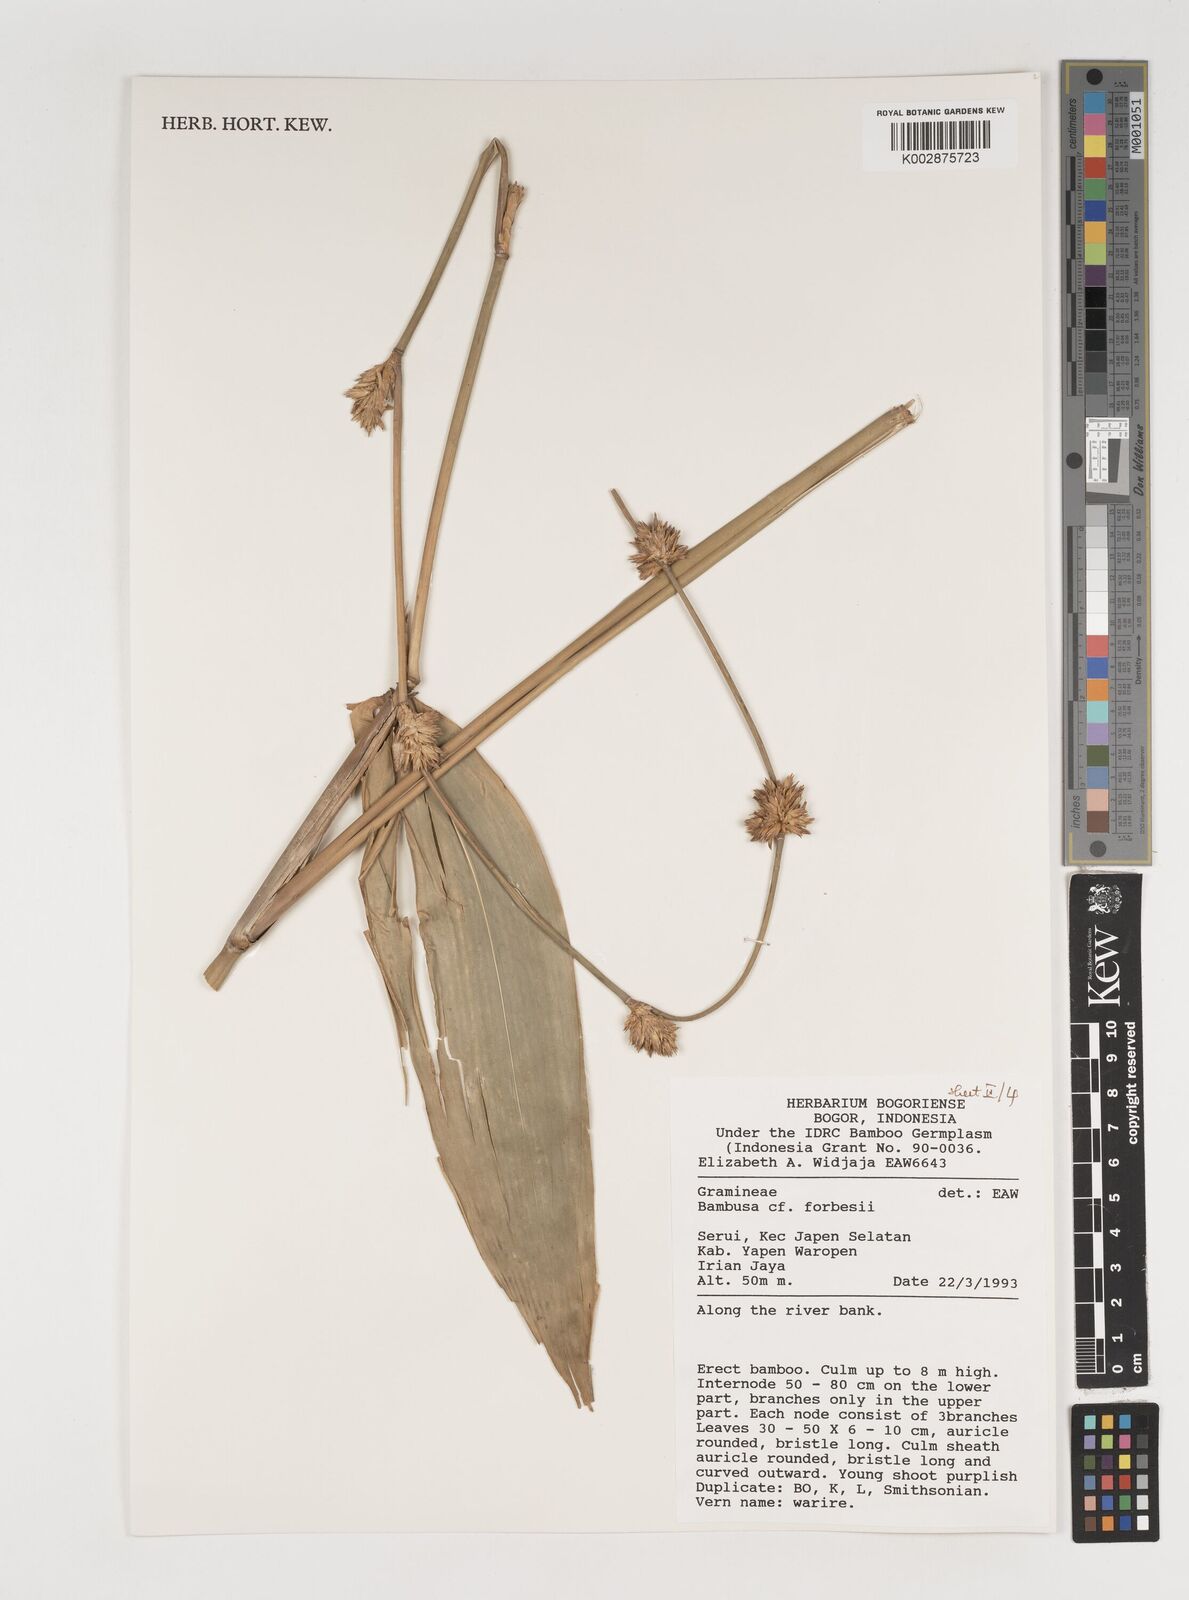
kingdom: Plantae
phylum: Tracheophyta
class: Liliopsida
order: Poales
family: Poaceae
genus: Neololeba
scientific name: Neololeba atra
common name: Cape bamboo
